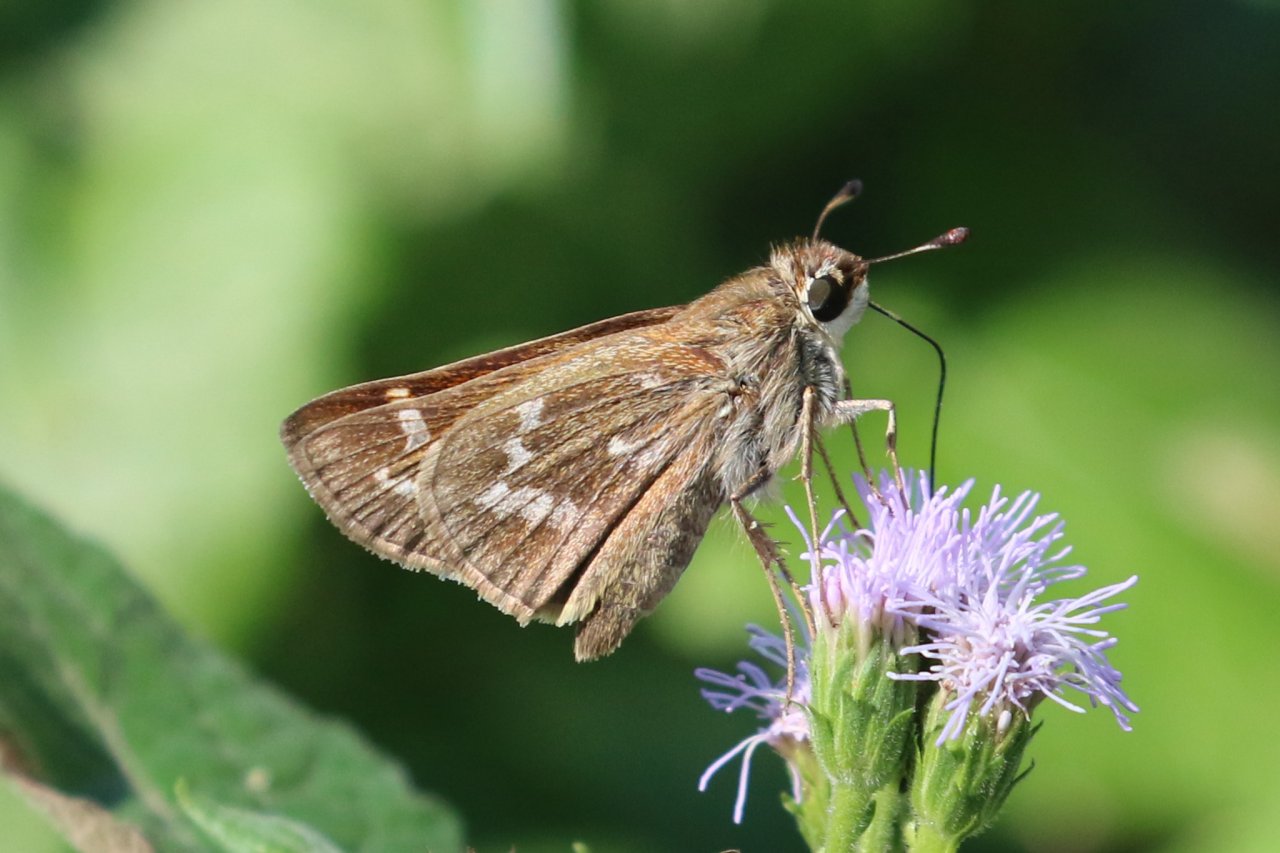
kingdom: Animalia
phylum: Arthropoda
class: Insecta
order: Lepidoptera
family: Hesperiidae
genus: Atalopedes
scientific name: Atalopedes campestris
